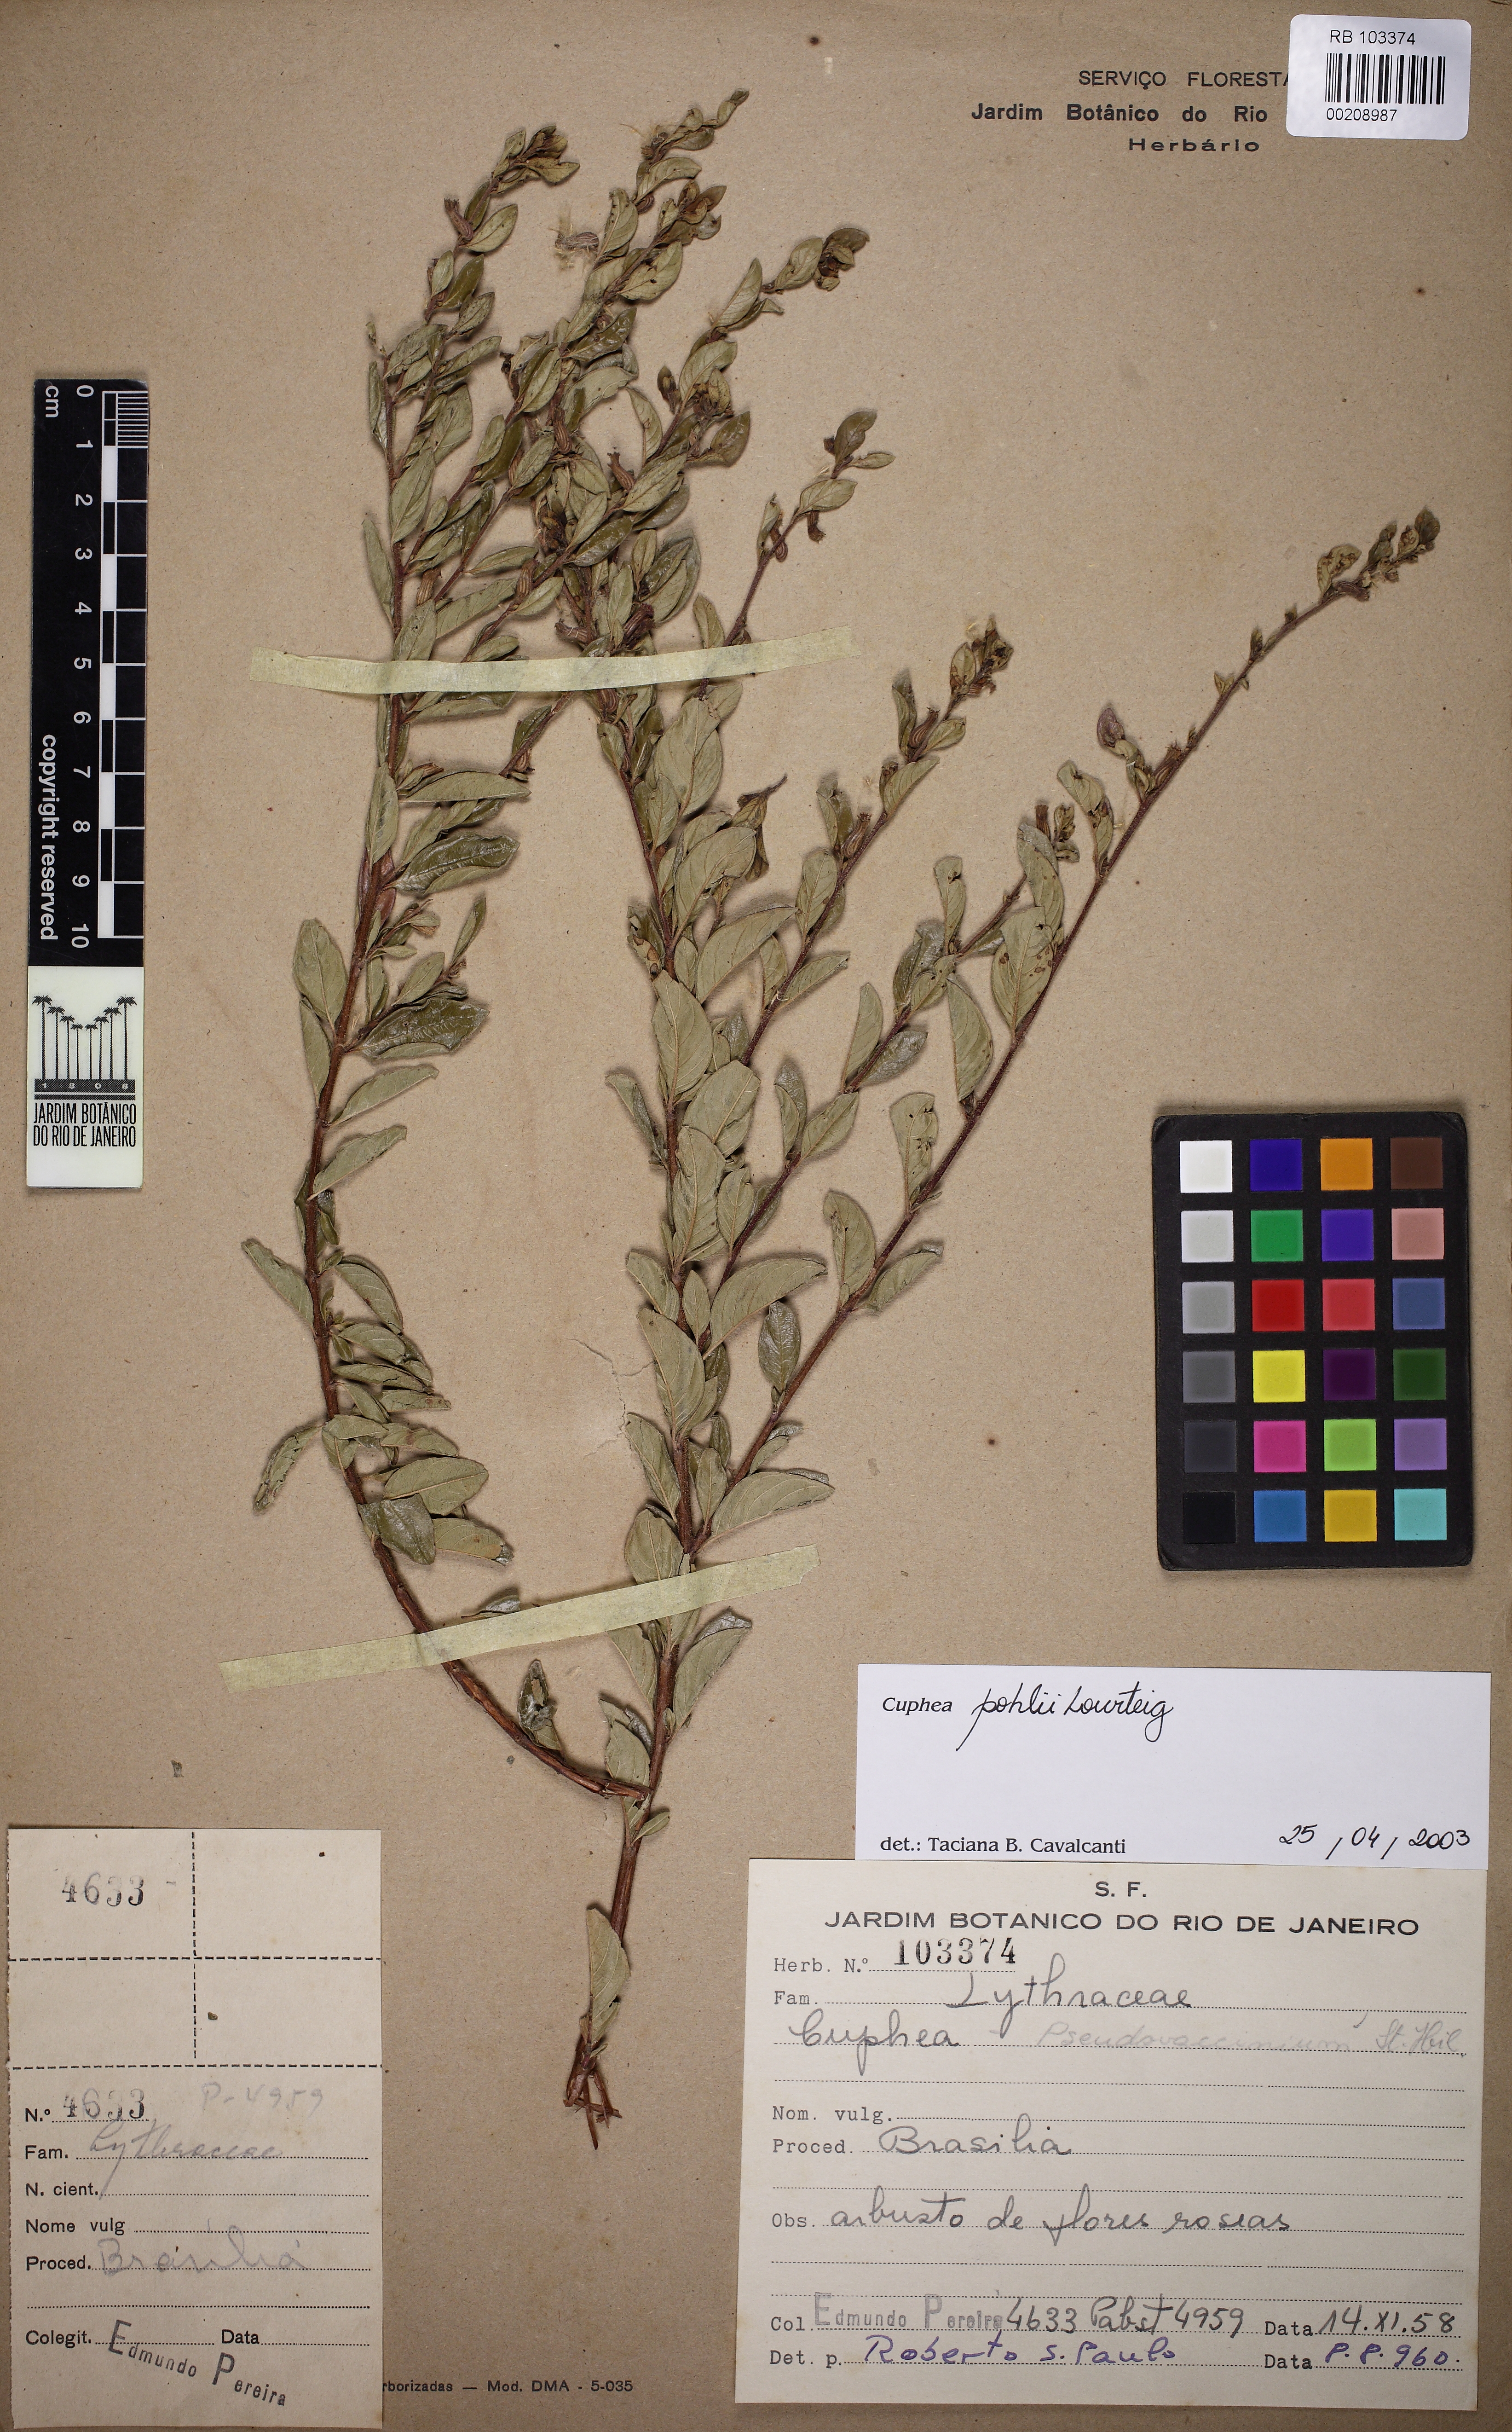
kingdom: Plantae
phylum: Tracheophyta
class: Magnoliopsida
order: Myrtales
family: Lythraceae
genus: Cuphea
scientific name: Cuphea pohlii
